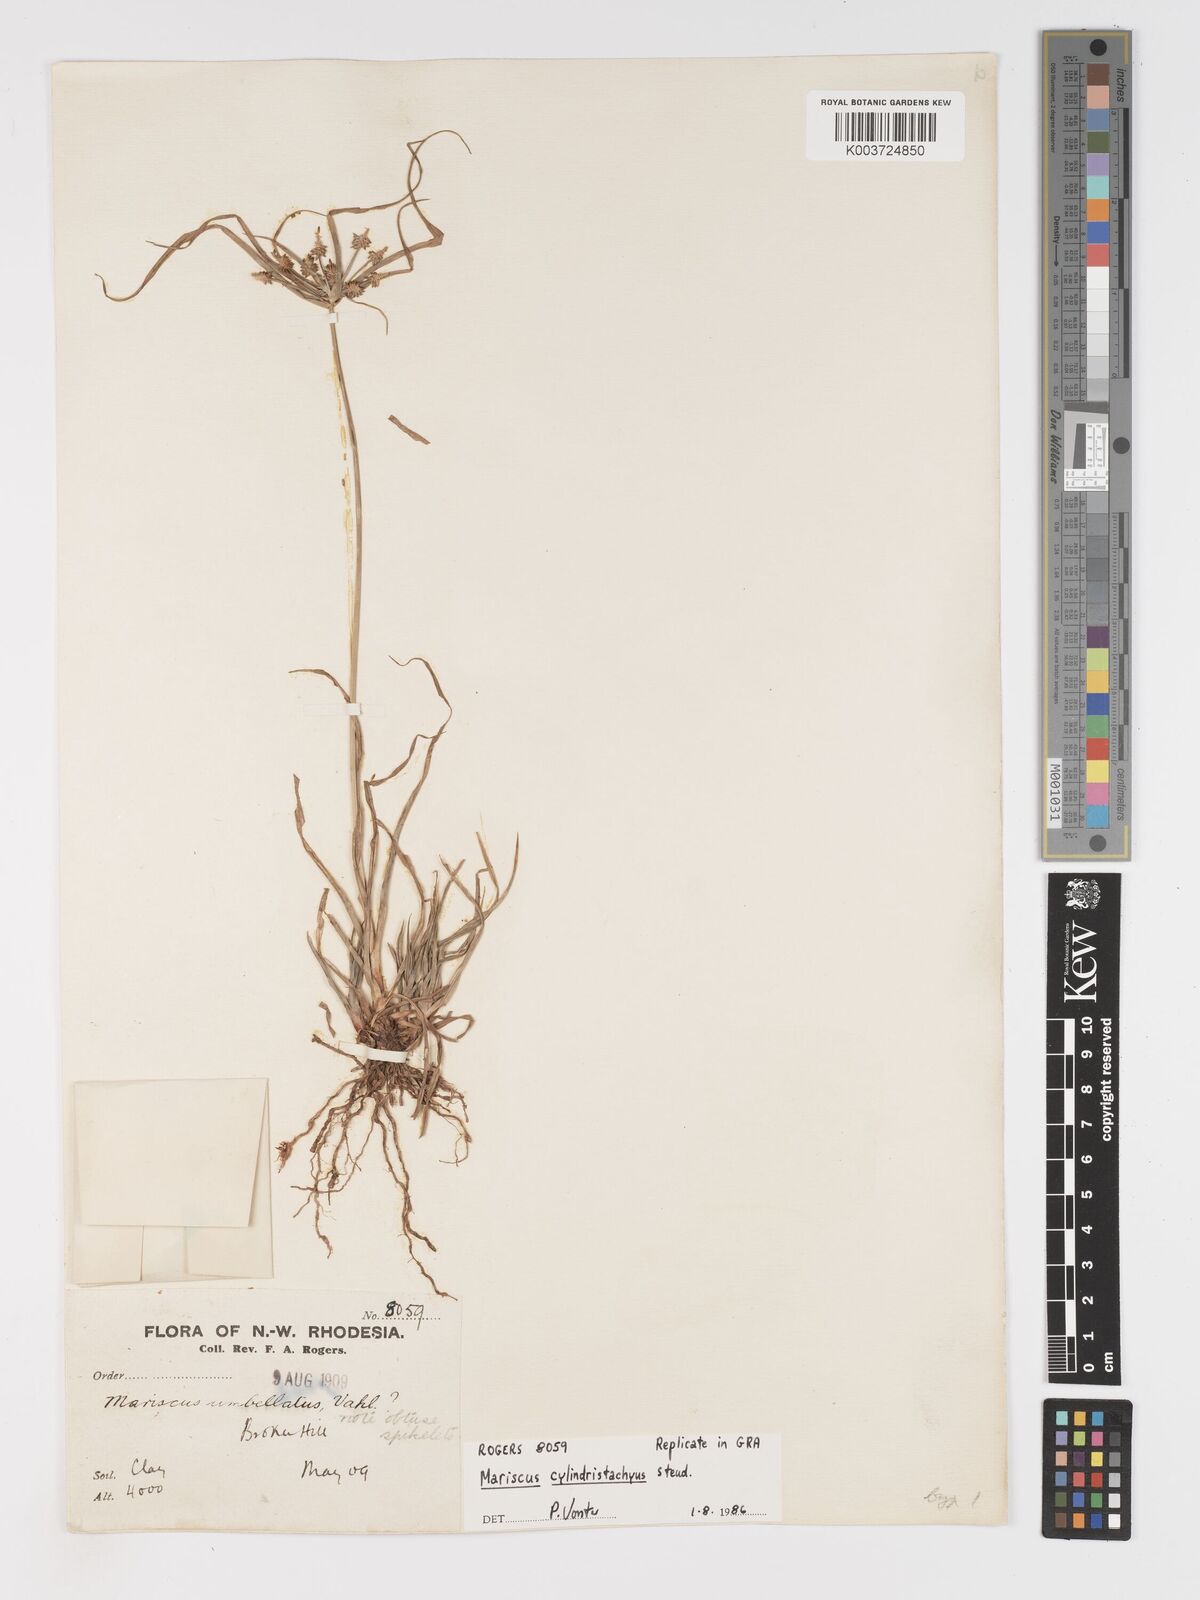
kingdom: Plantae
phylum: Tracheophyta
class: Liliopsida
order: Poales
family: Cyperaceae
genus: Cyperus
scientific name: Cyperus cyperoides
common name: Pacific island flat sedge
